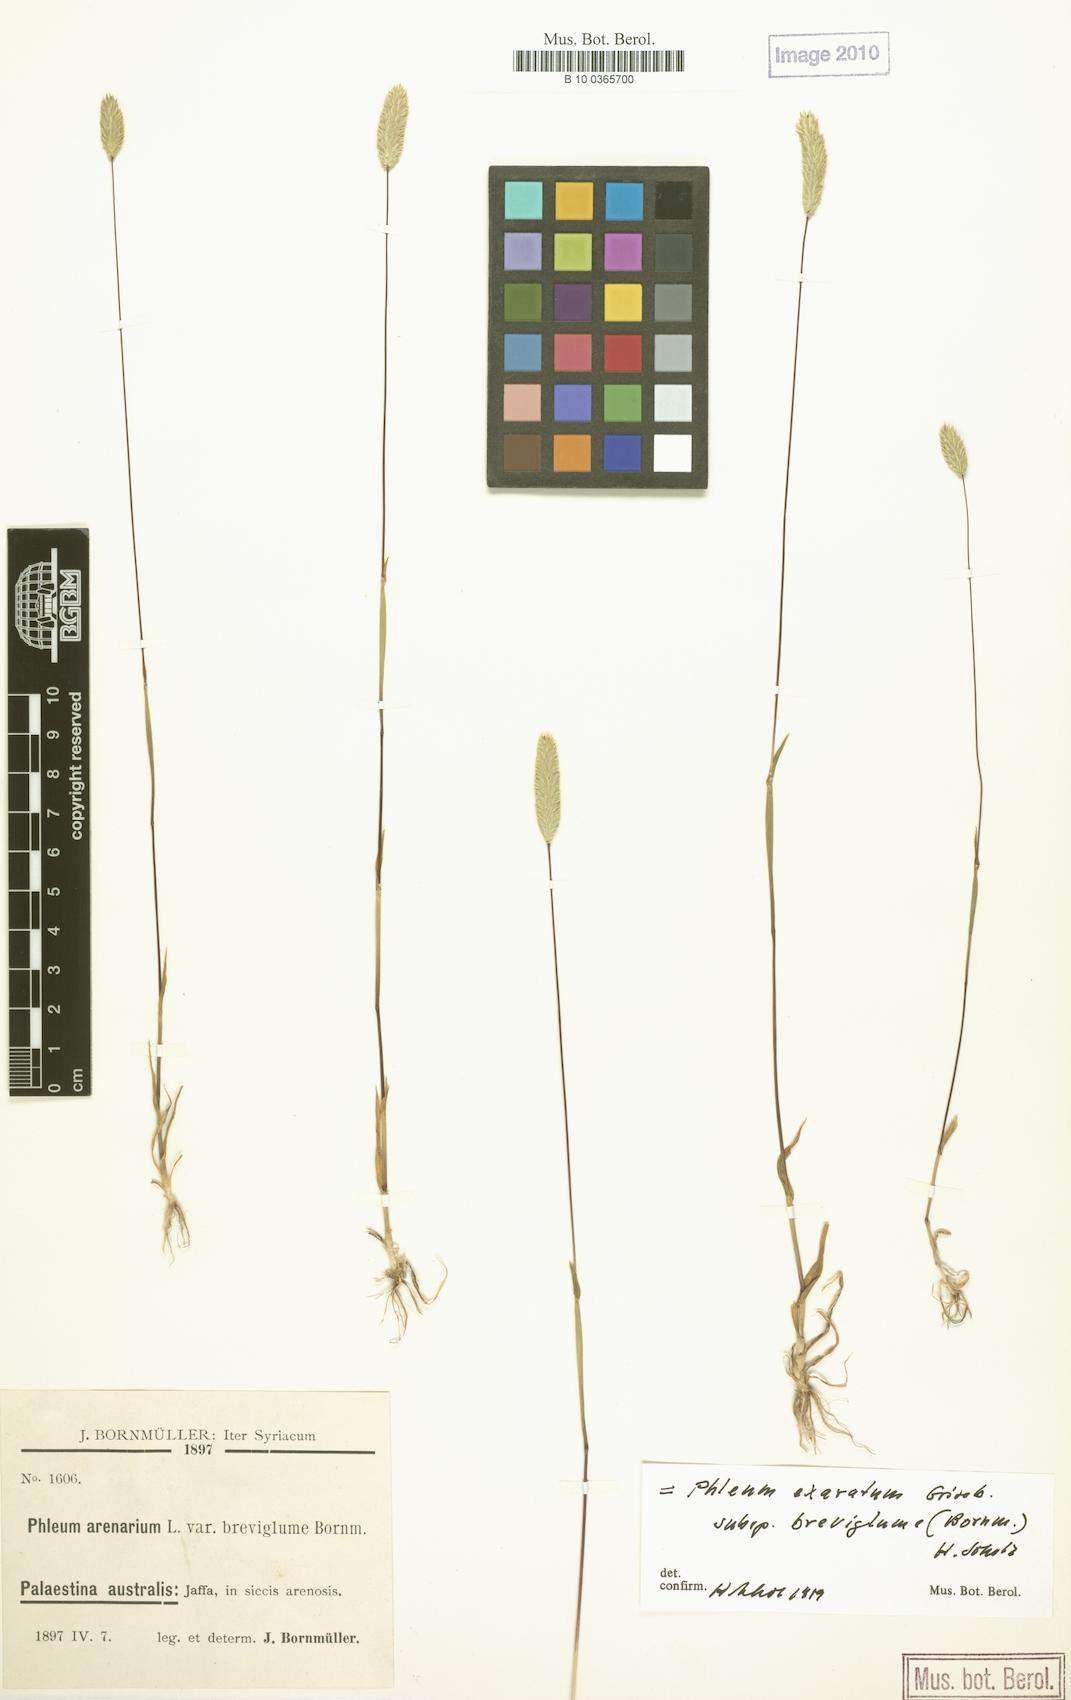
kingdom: Plantae
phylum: Tracheophyta
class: Liliopsida
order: Poales
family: Poaceae
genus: Phleum
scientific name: Phleum exaratum
